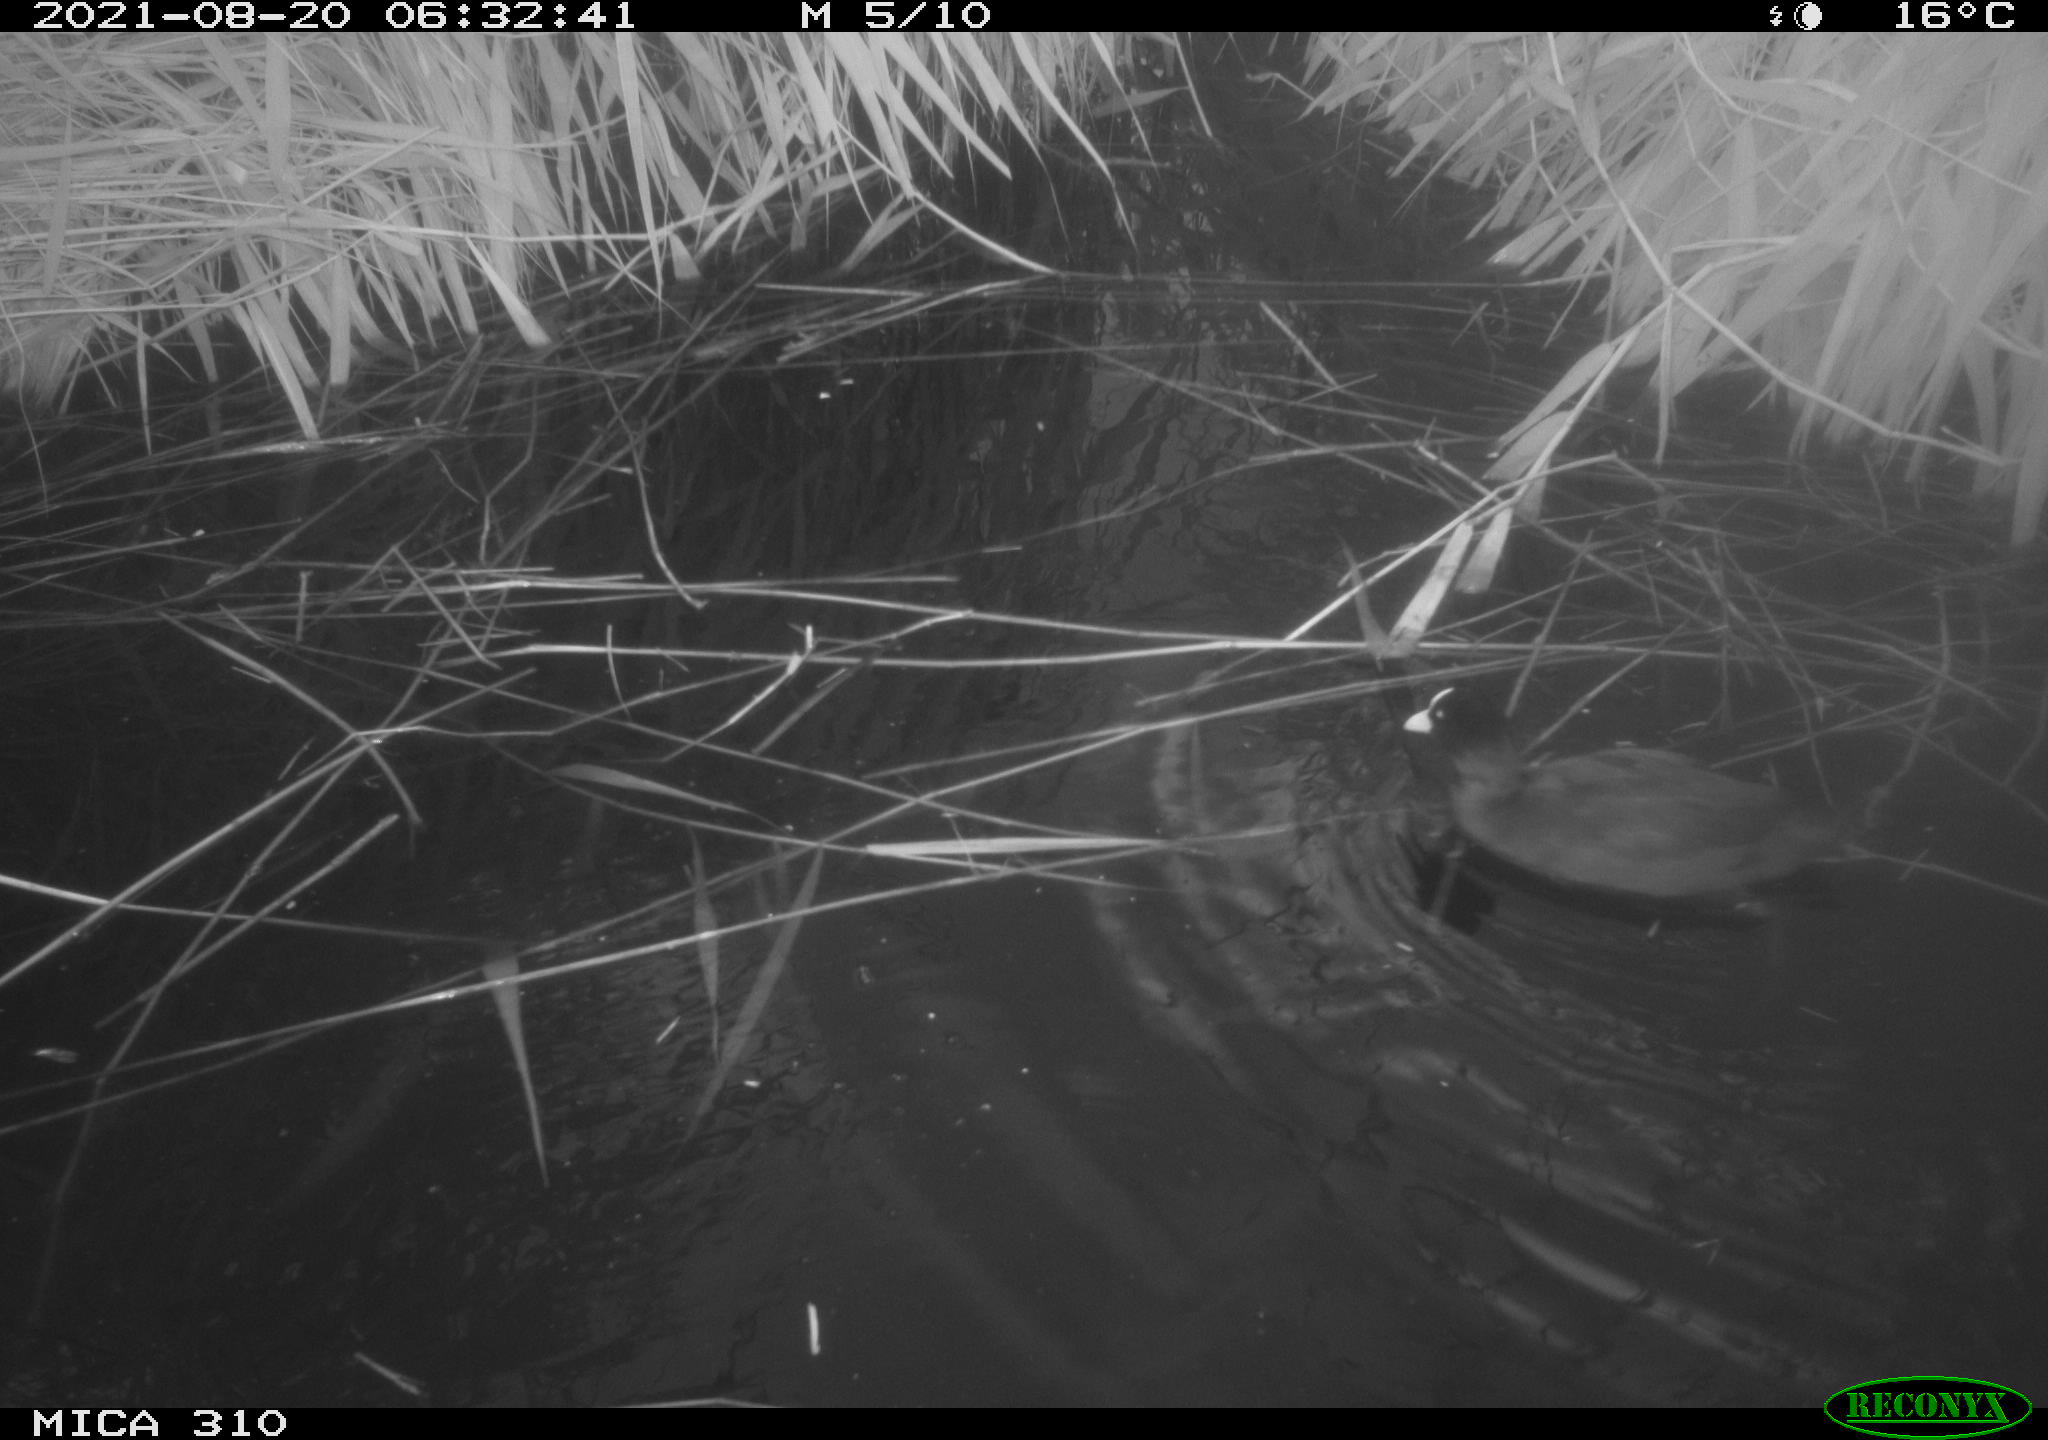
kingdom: Animalia
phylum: Chordata
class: Aves
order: Gruiformes
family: Rallidae
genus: Fulica
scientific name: Fulica atra
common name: Eurasian coot
